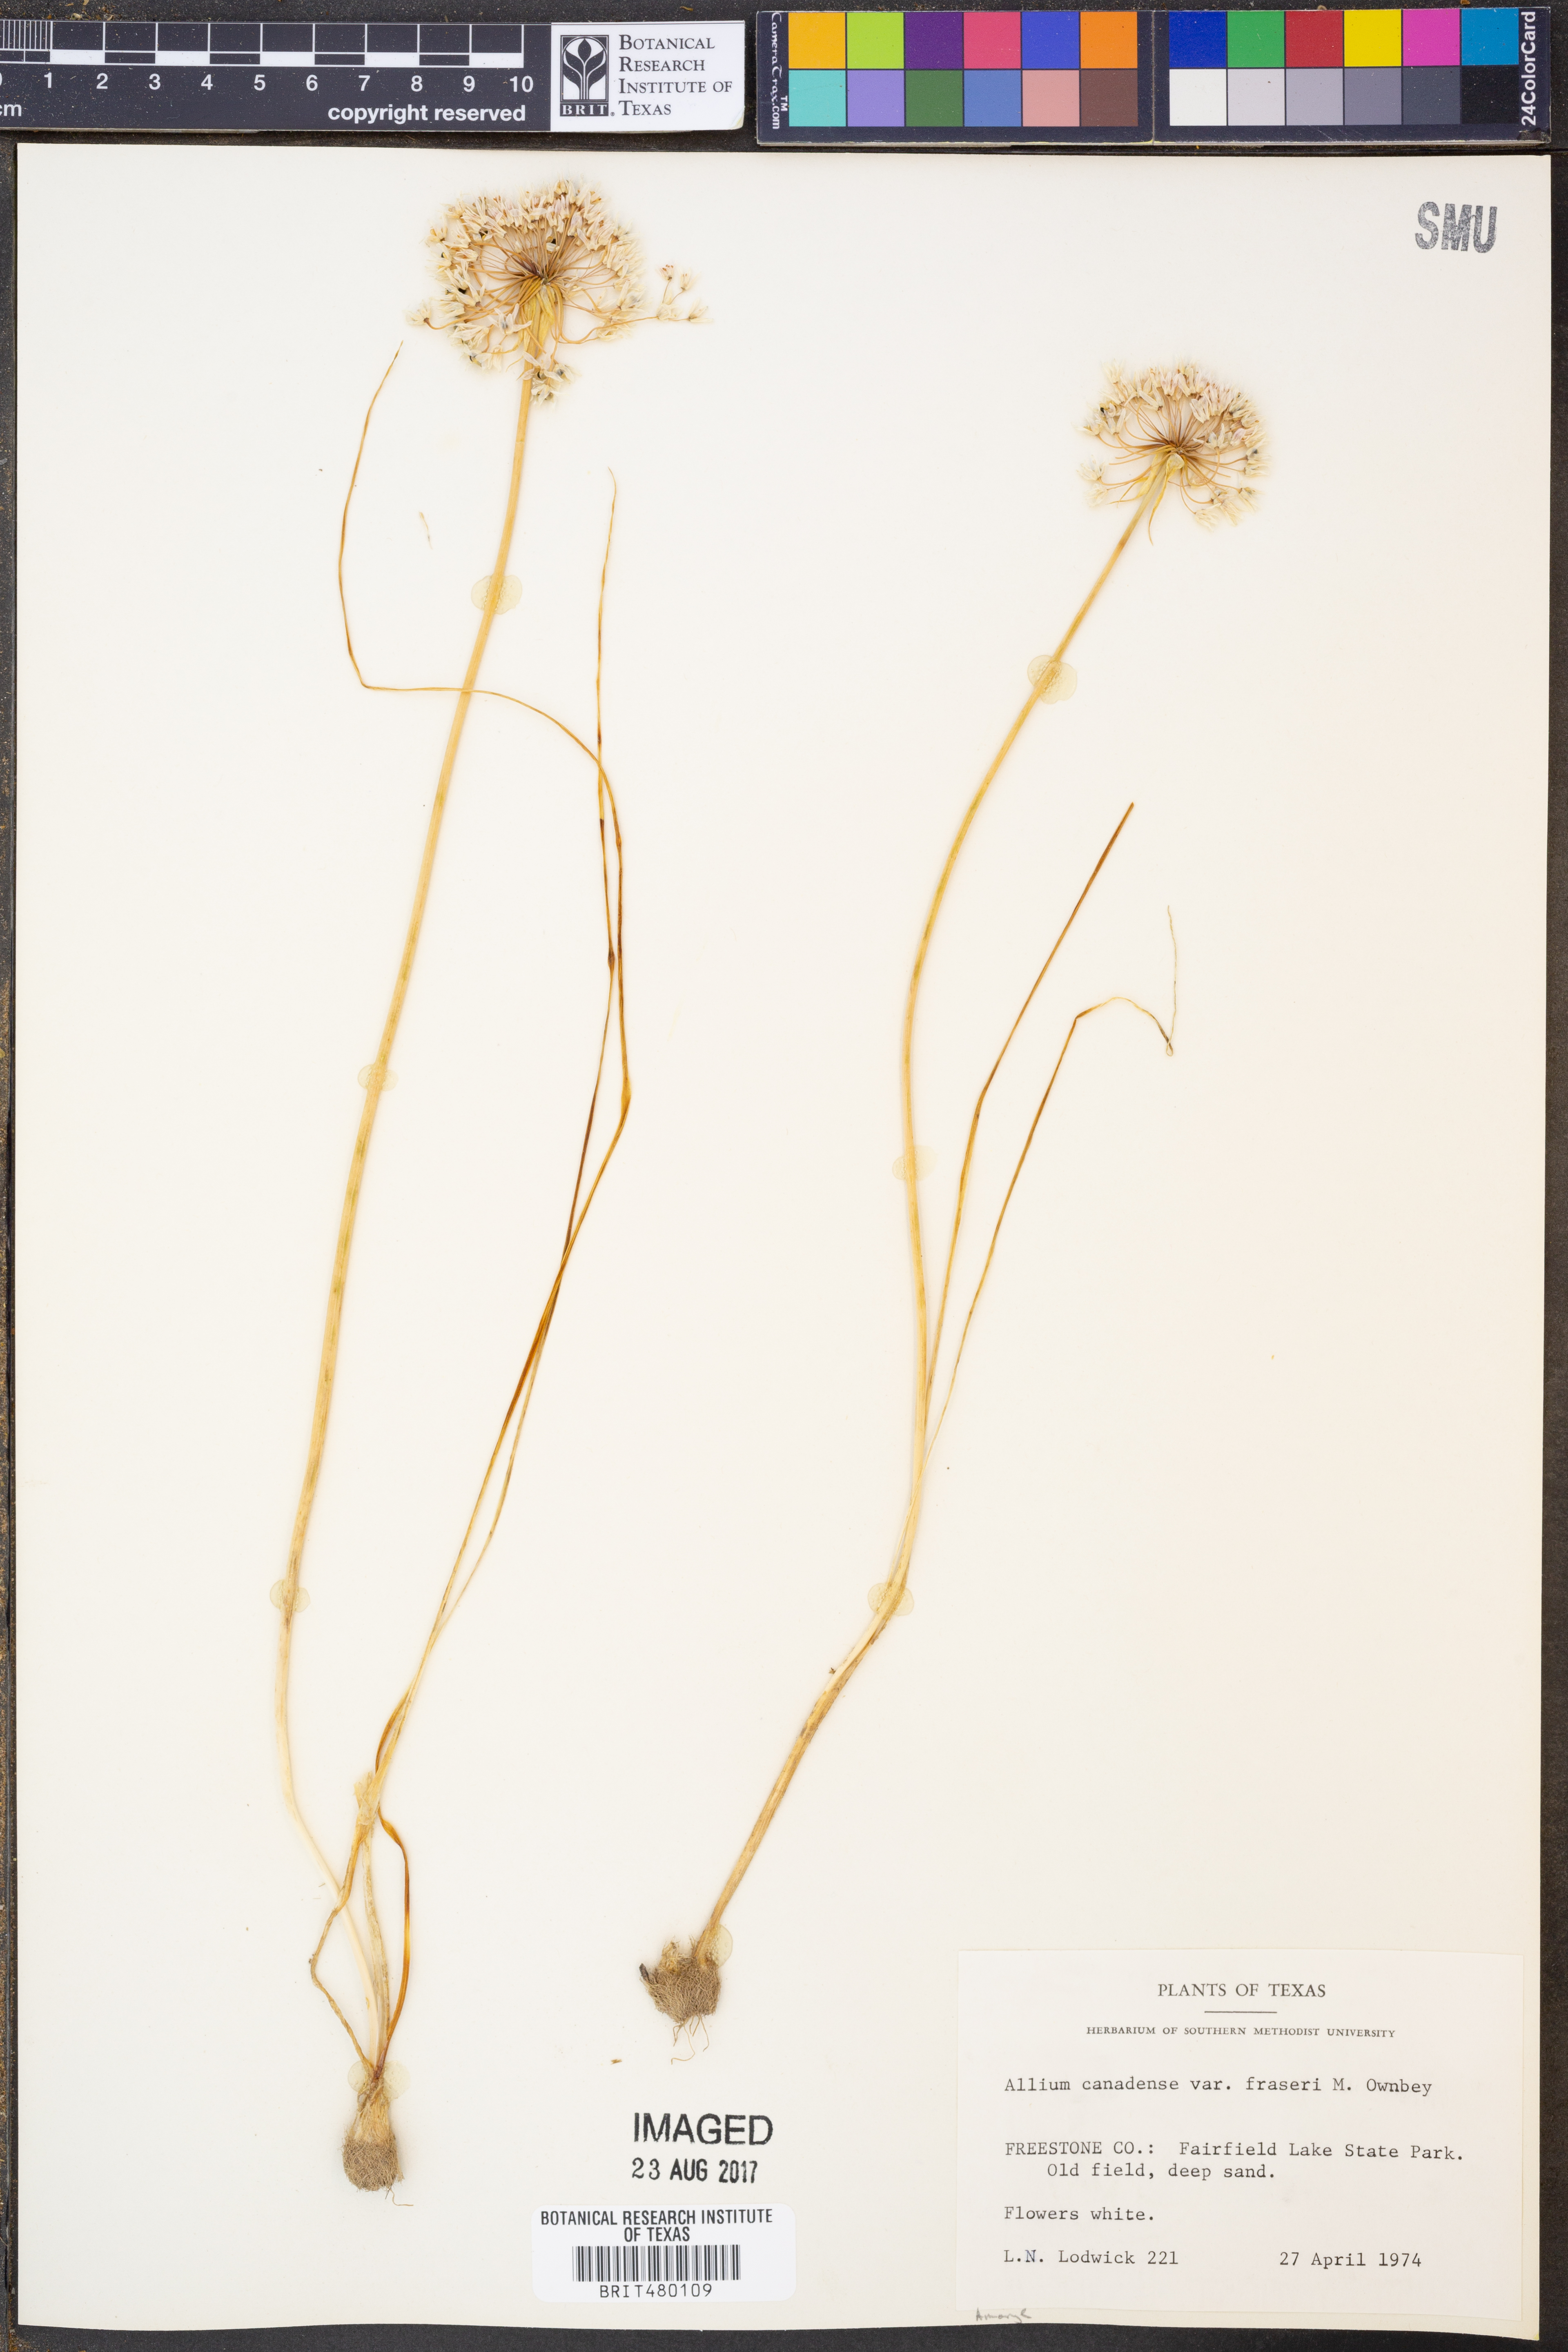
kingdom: Plantae
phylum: Tracheophyta
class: Liliopsida
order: Asparagales
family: Amaryllidaceae
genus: Allium
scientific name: Allium fraseri
